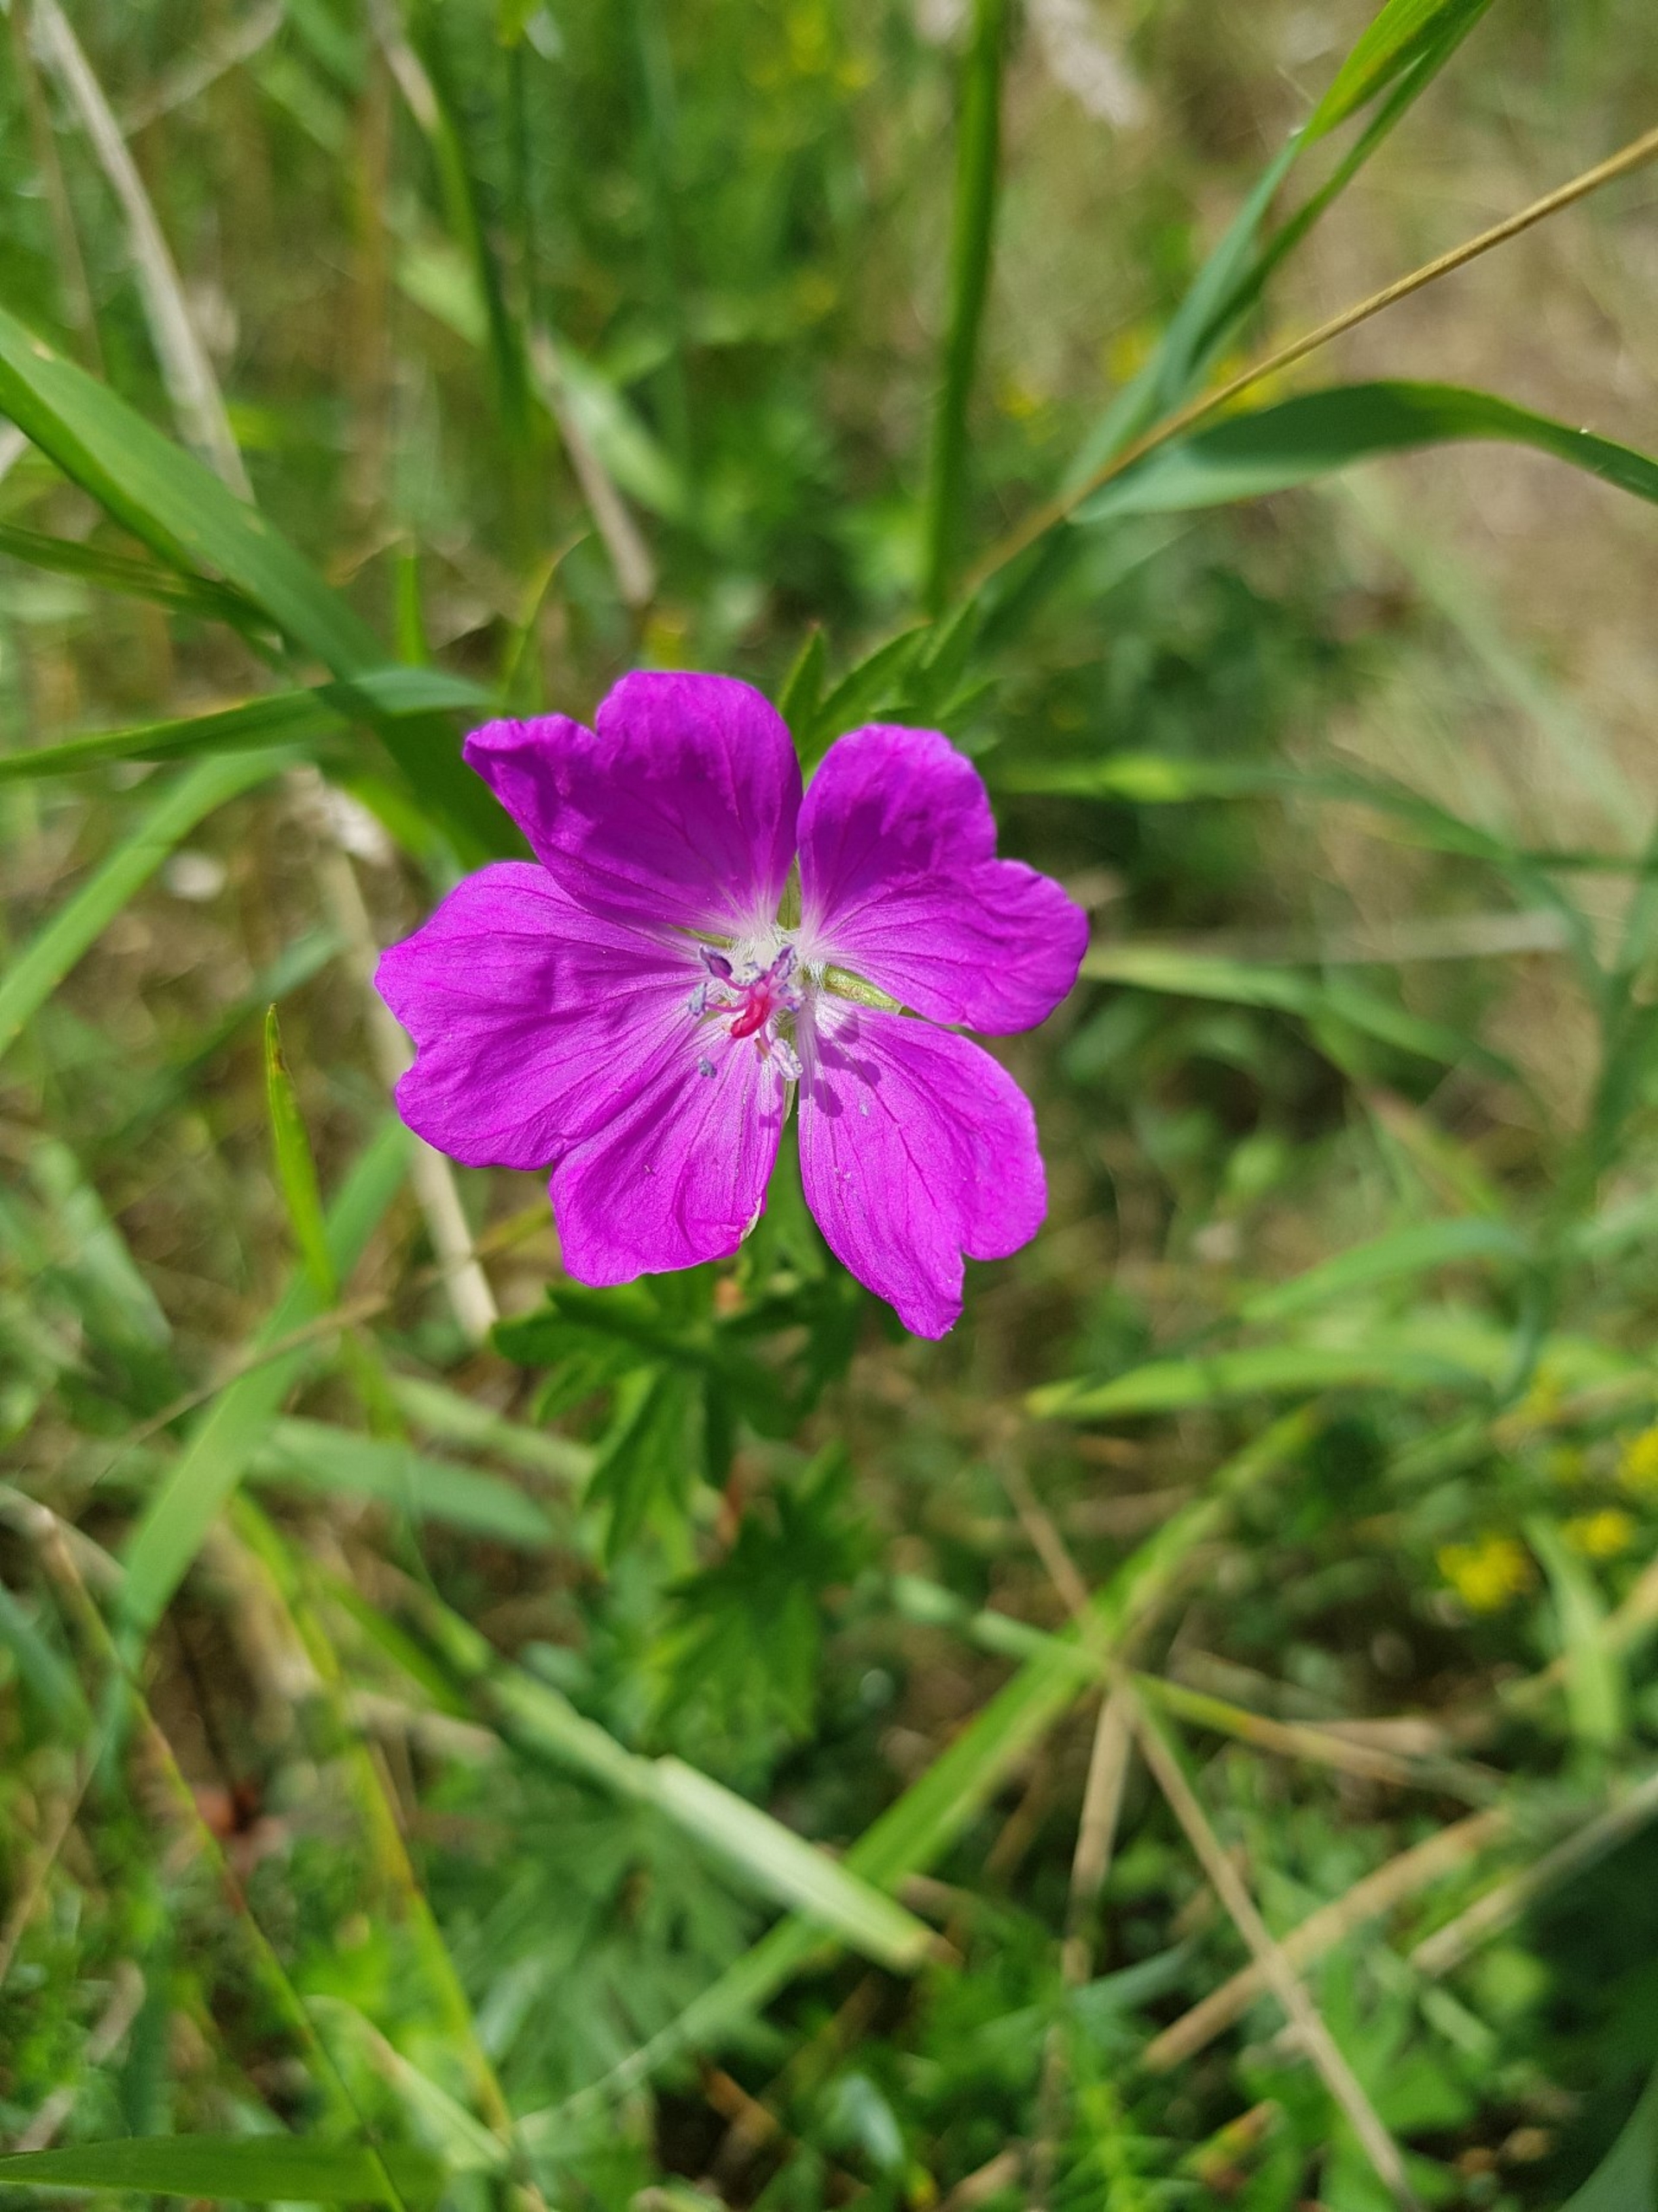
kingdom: Plantae
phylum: Tracheophyta
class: Magnoliopsida
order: Geraniales
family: Geraniaceae
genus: Geranium
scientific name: Geranium sanguineum
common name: Blodrød storkenæb
